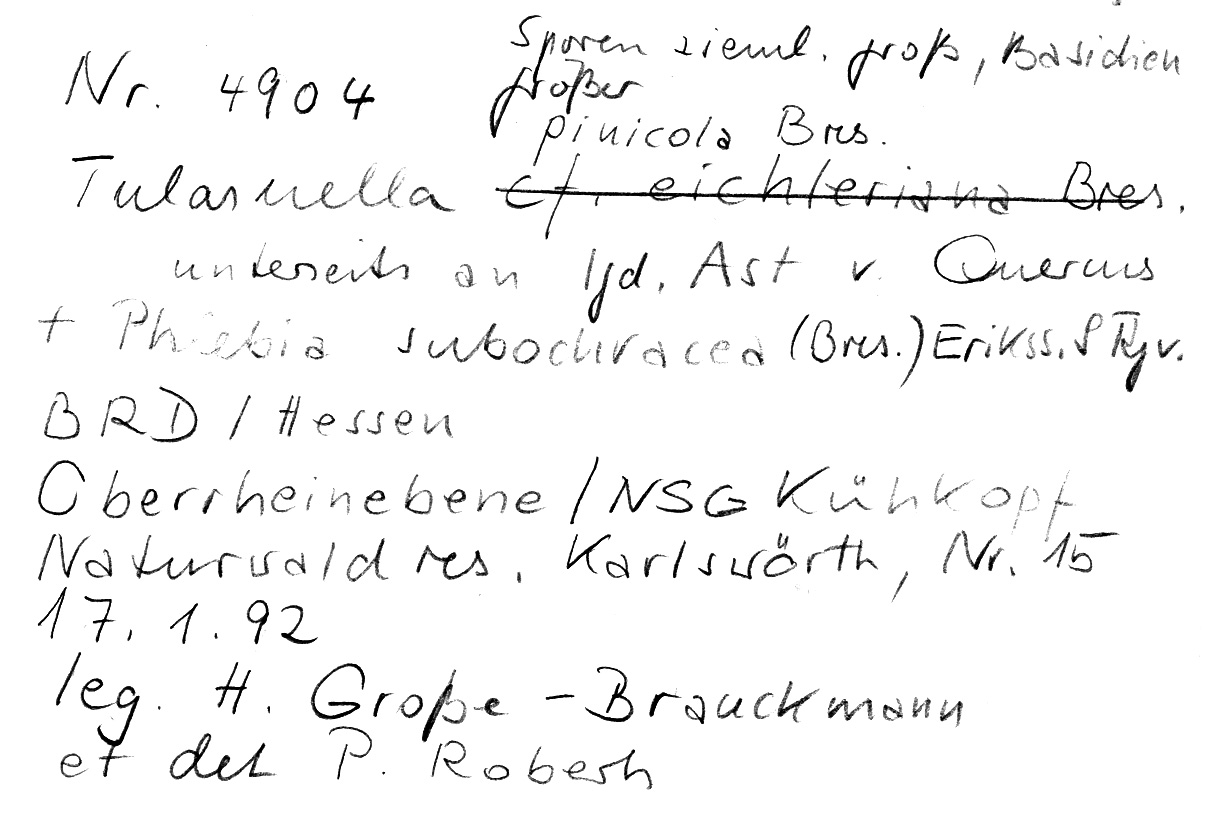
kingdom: Fungi
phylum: Basidiomycota
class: Agaricomycetes
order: Cantharellales
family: Tulasnellaceae
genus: Tulasnella
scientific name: Tulasnella pinicola
